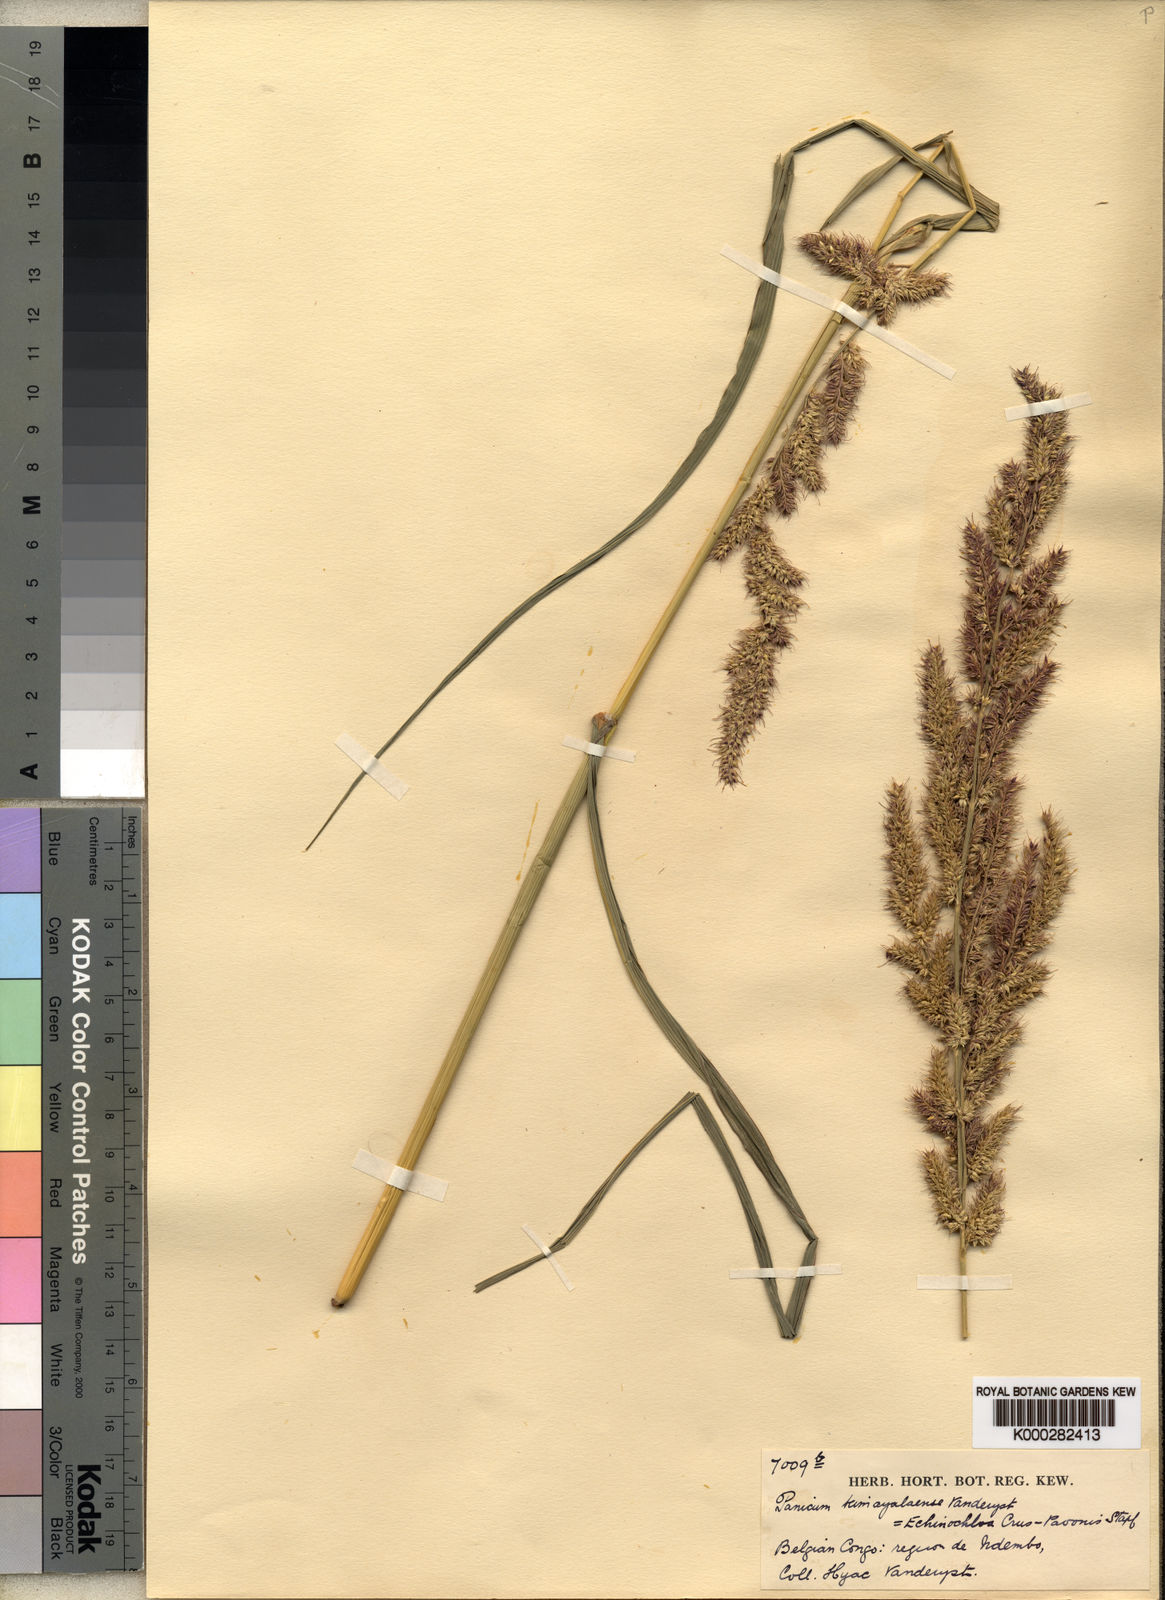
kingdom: Plantae
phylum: Tracheophyta
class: Liliopsida
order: Poales
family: Poaceae
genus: Echinochloa
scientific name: Echinochloa crus-pavonis
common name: Gulf cockspur grass
